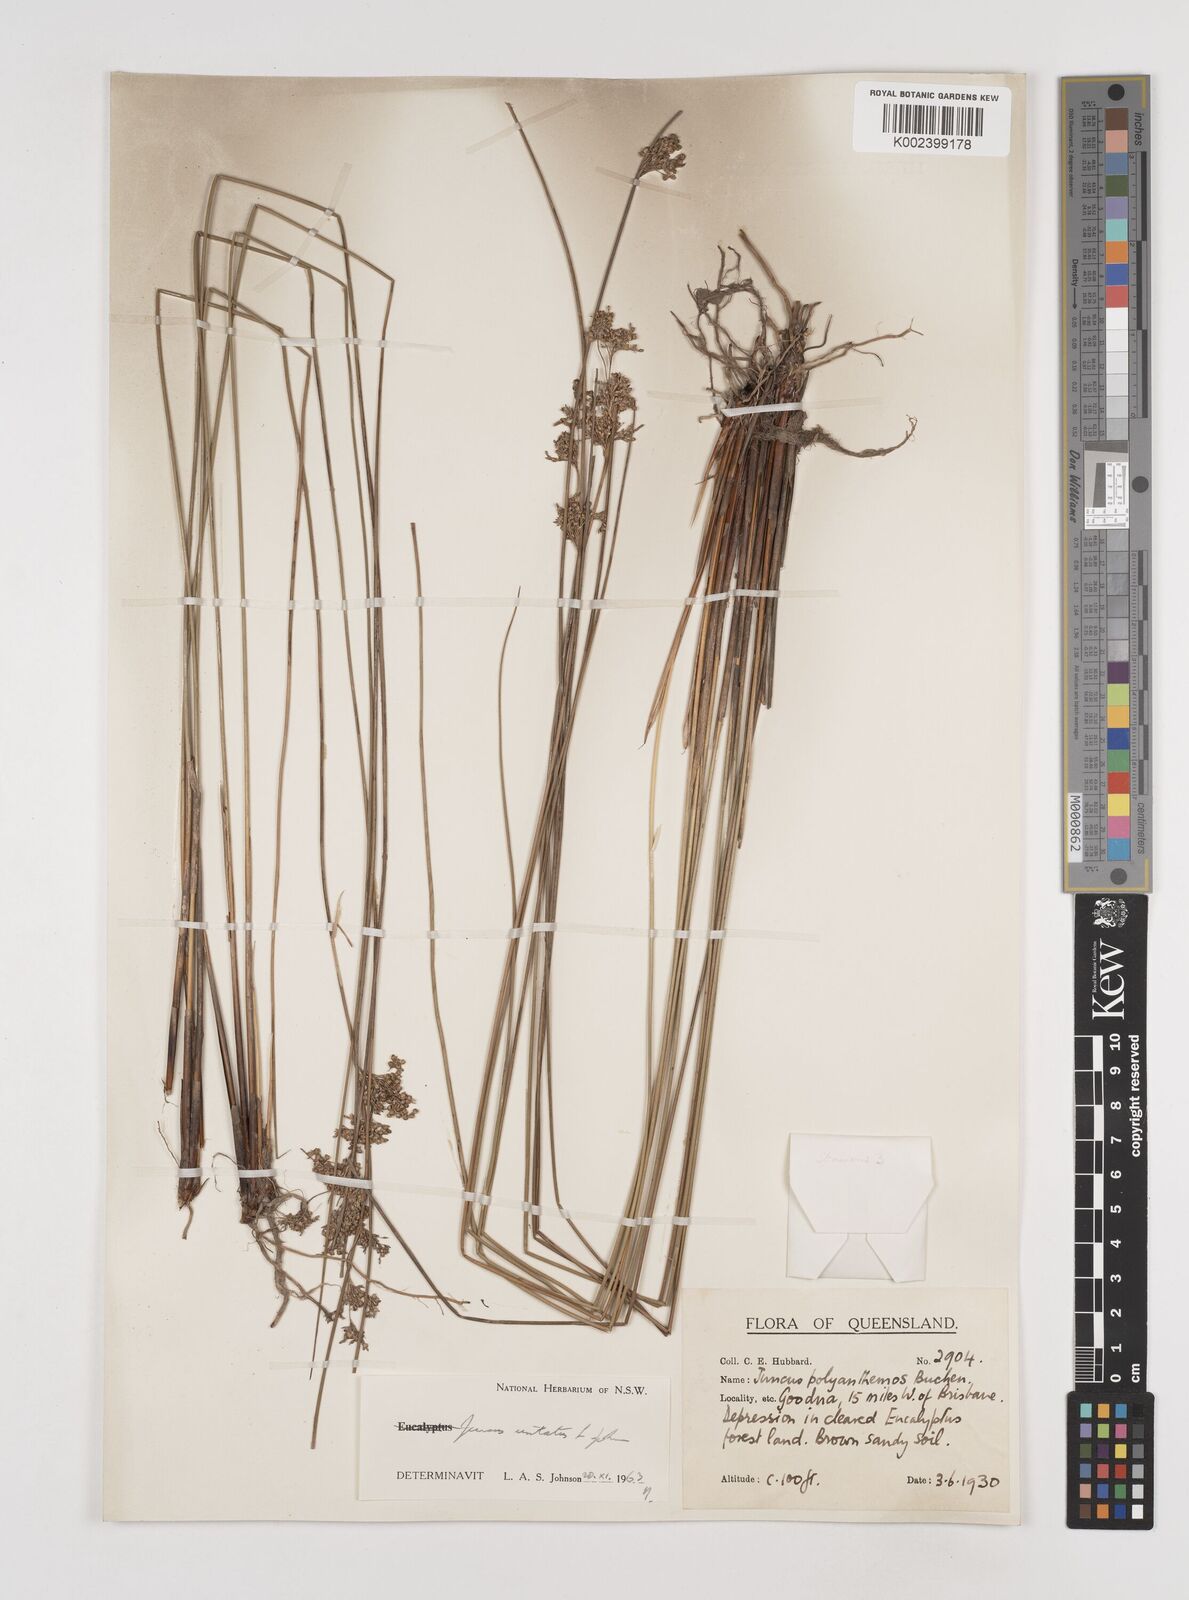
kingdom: Plantae
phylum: Tracheophyta
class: Liliopsida
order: Poales
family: Juncaceae
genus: Juncus
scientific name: Juncus usitatus
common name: Rush
